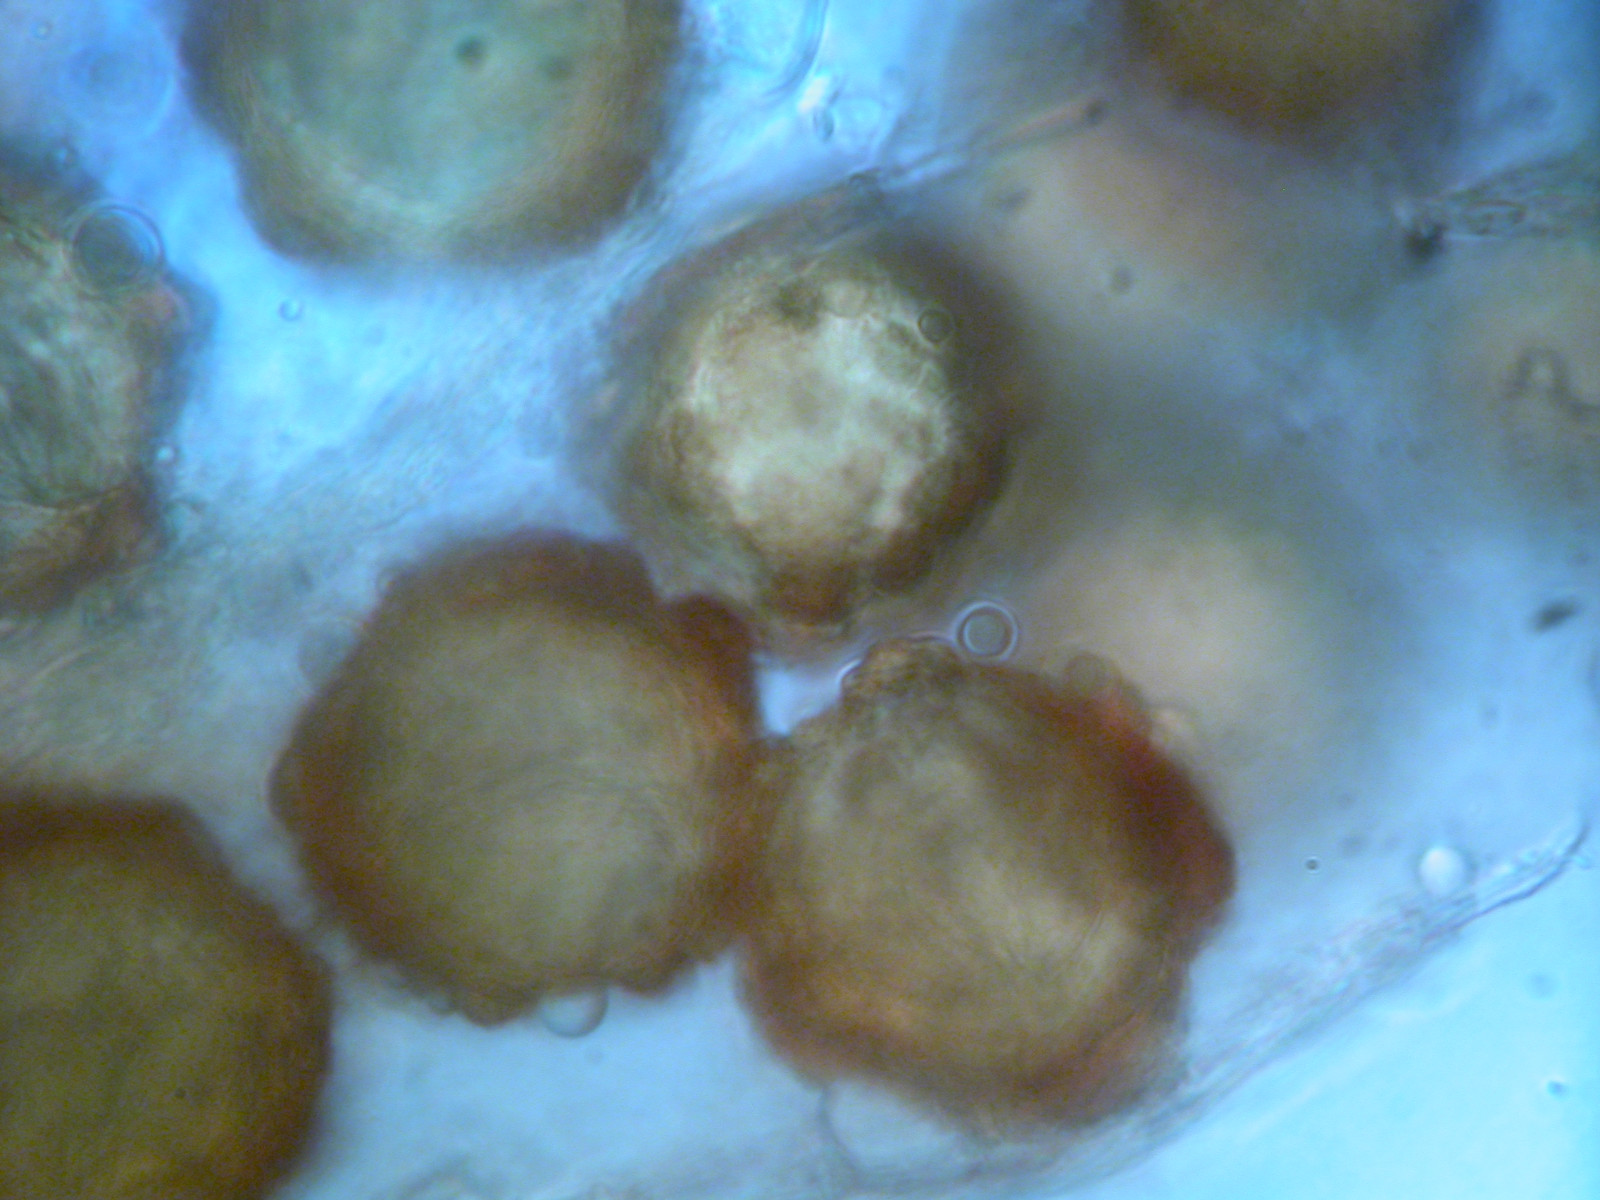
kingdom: Fungi
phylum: Ascomycota
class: Pezizomycetes
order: Pezizales
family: Discinaceae
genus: Hydnotrya
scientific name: Hydnotrya tulasnei
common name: almindelig foldtrøffel
